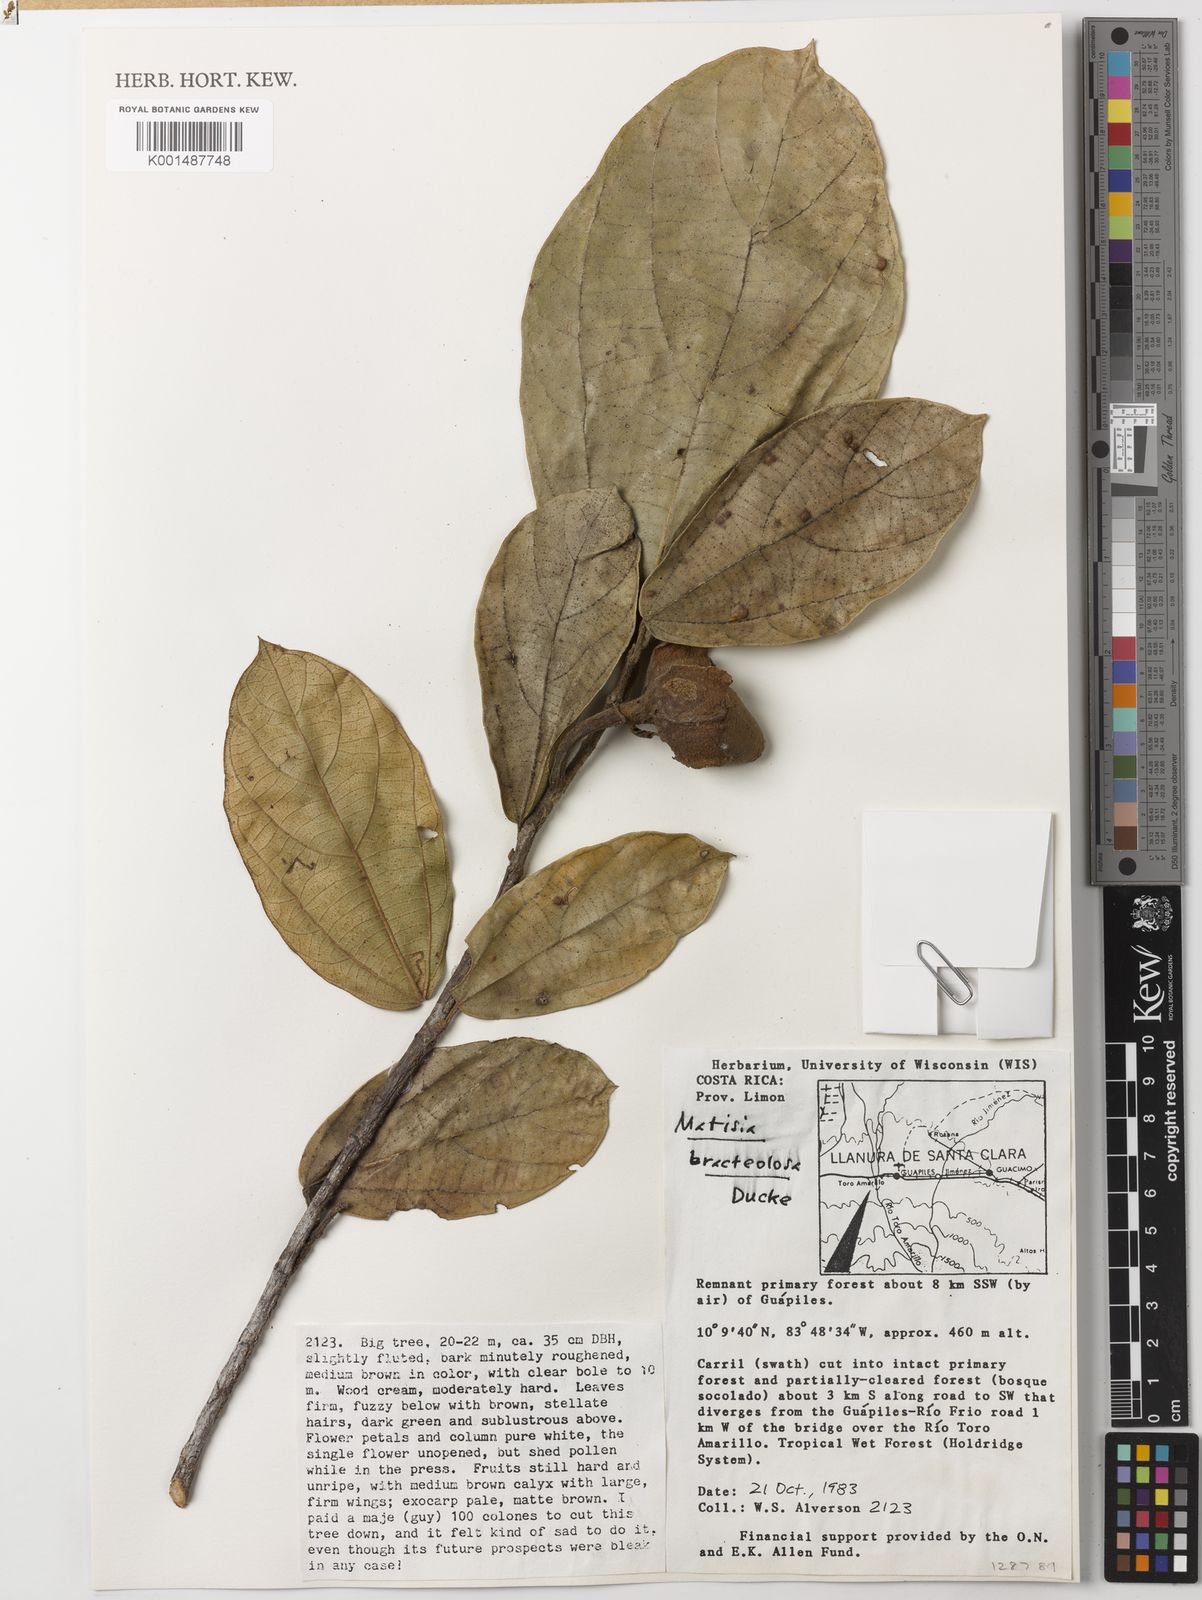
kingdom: Plantae
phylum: Tracheophyta
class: Magnoliopsida
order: Malvales
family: Malvaceae
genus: Matisia
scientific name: Matisia bracteolosa
